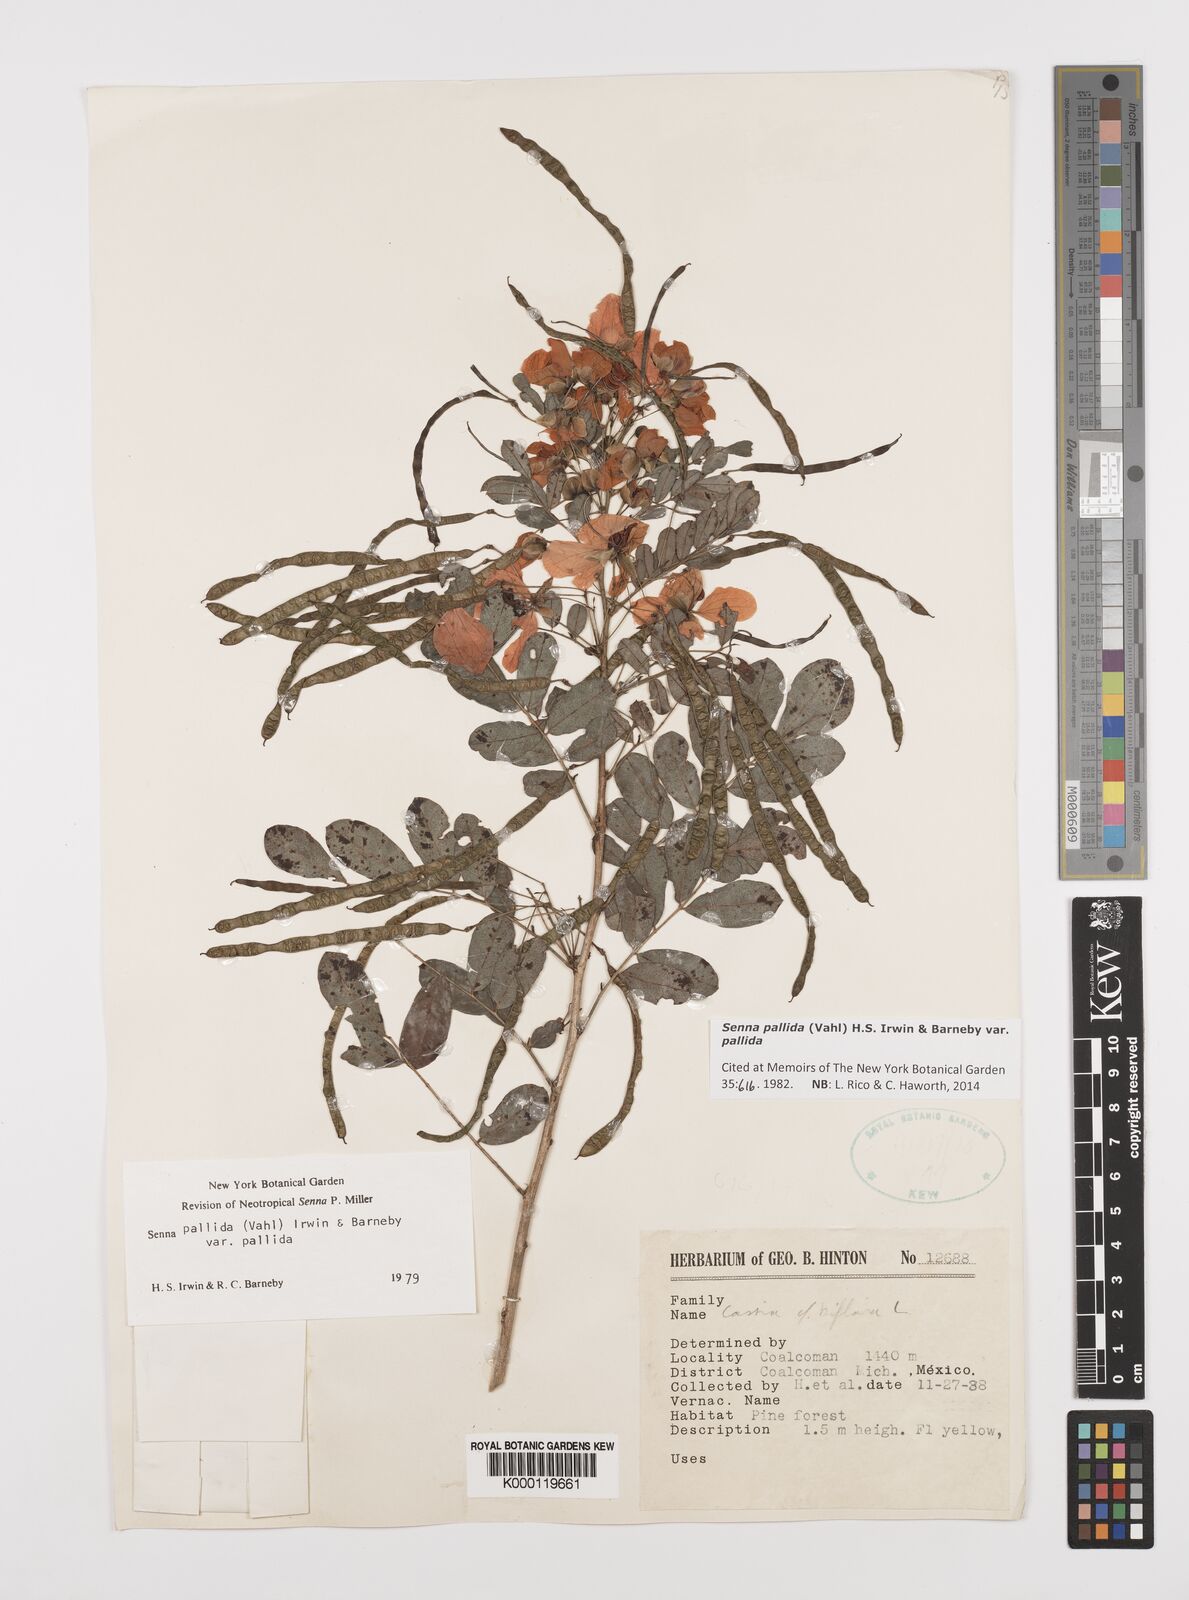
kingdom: Plantae
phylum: Tracheophyta
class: Magnoliopsida
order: Fabales
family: Fabaceae
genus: Senna
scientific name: Senna pallida
